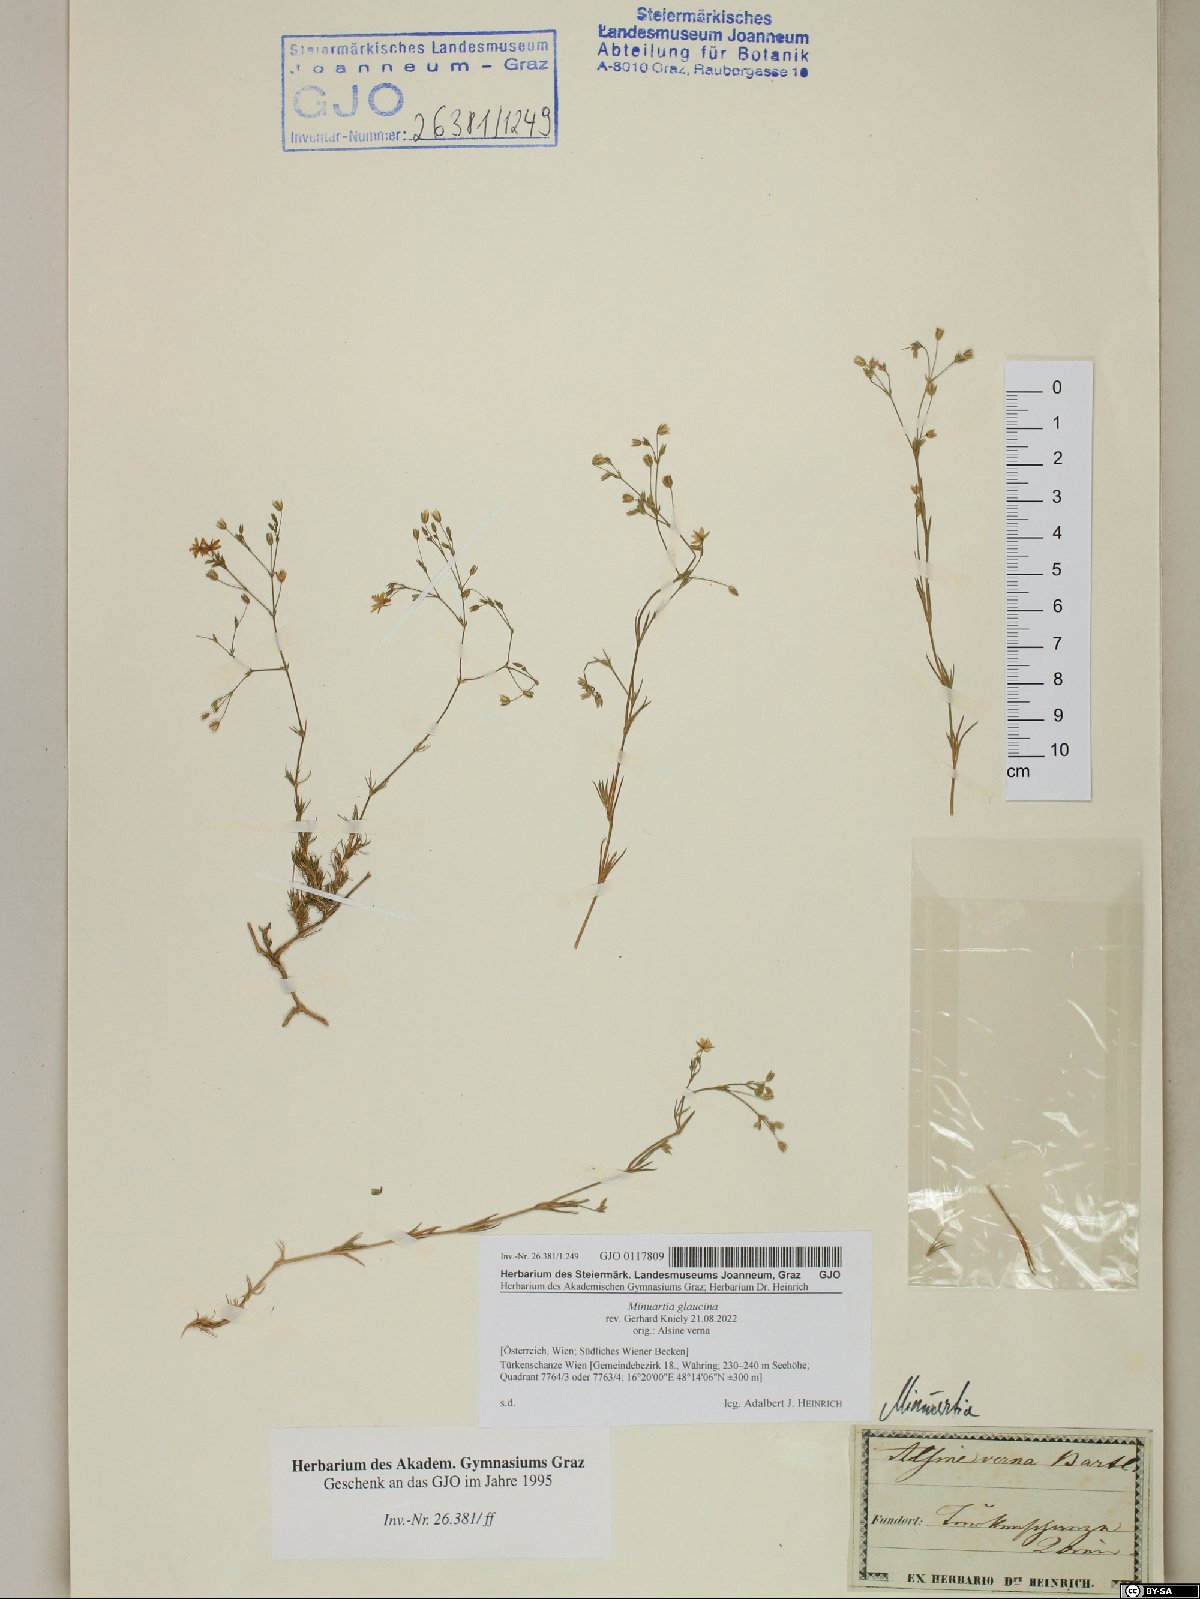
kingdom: Plantae
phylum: Tracheophyta
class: Magnoliopsida
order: Caryophyllales
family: Caryophyllaceae
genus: Sabulina
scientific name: Sabulina glaucina
